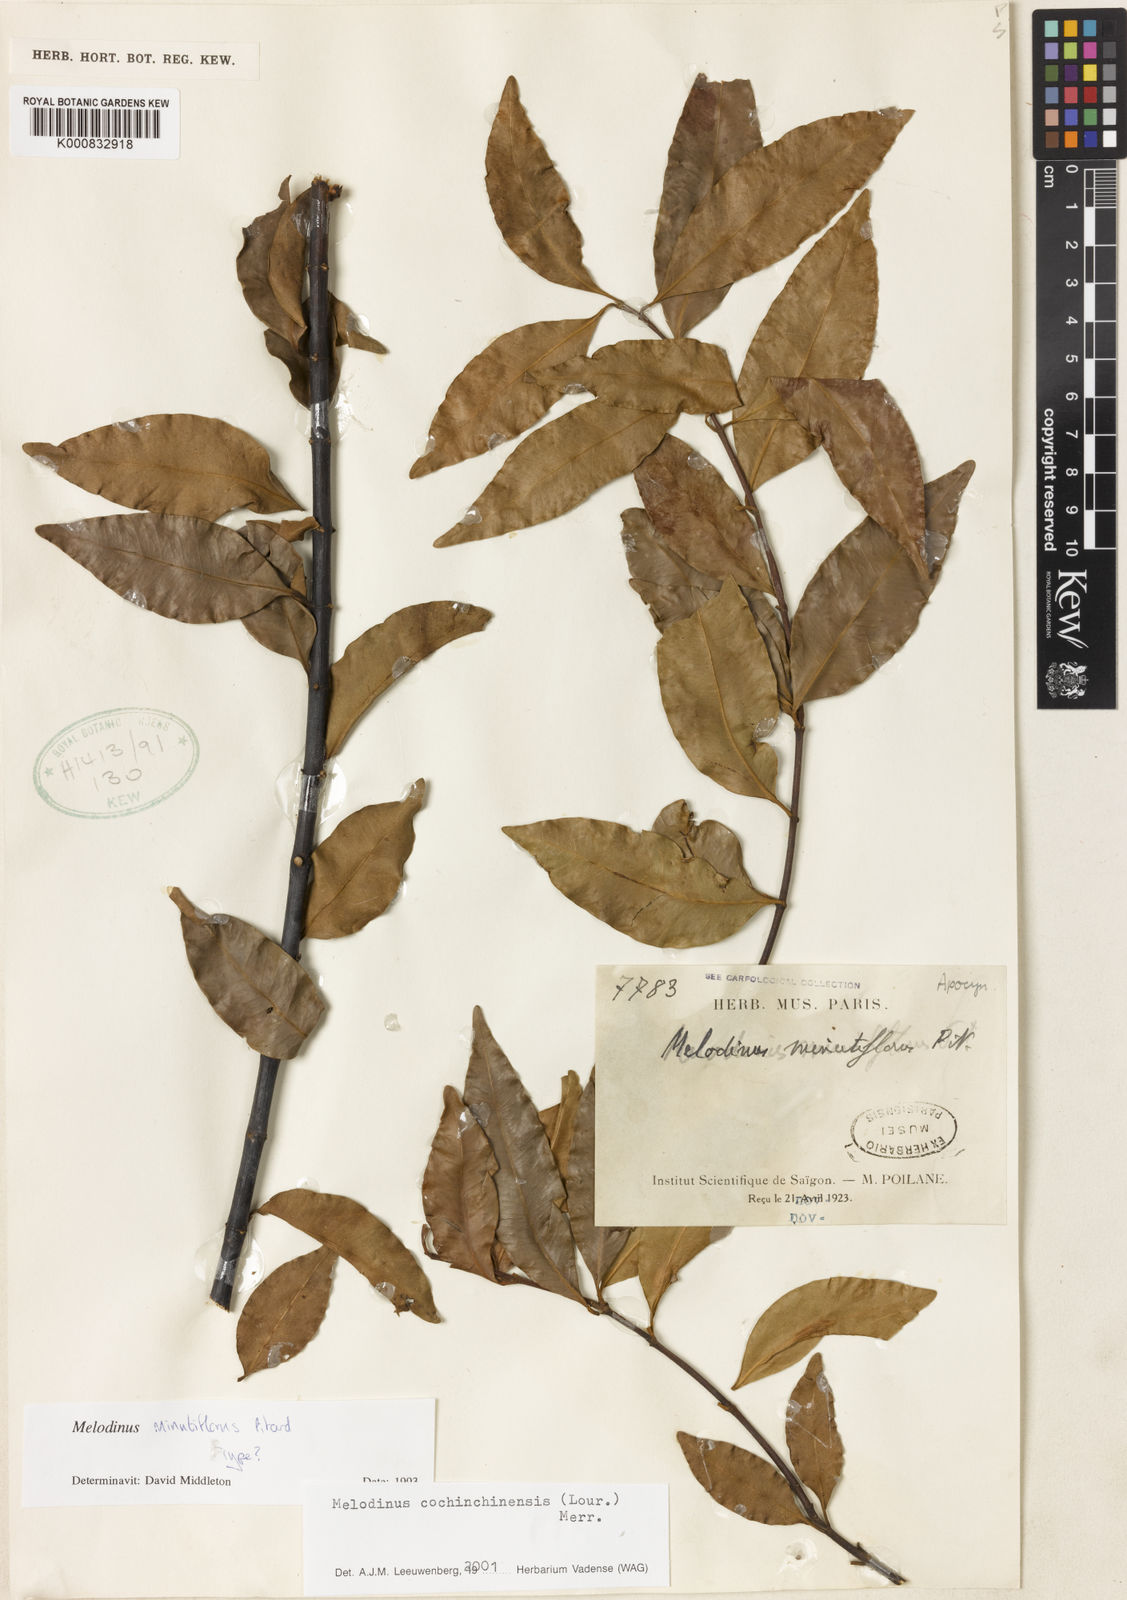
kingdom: Plantae
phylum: Tracheophyta
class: Magnoliopsida
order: Gentianales
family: Apocynaceae
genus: Melodinus
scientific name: Melodinus cochinchinensis
